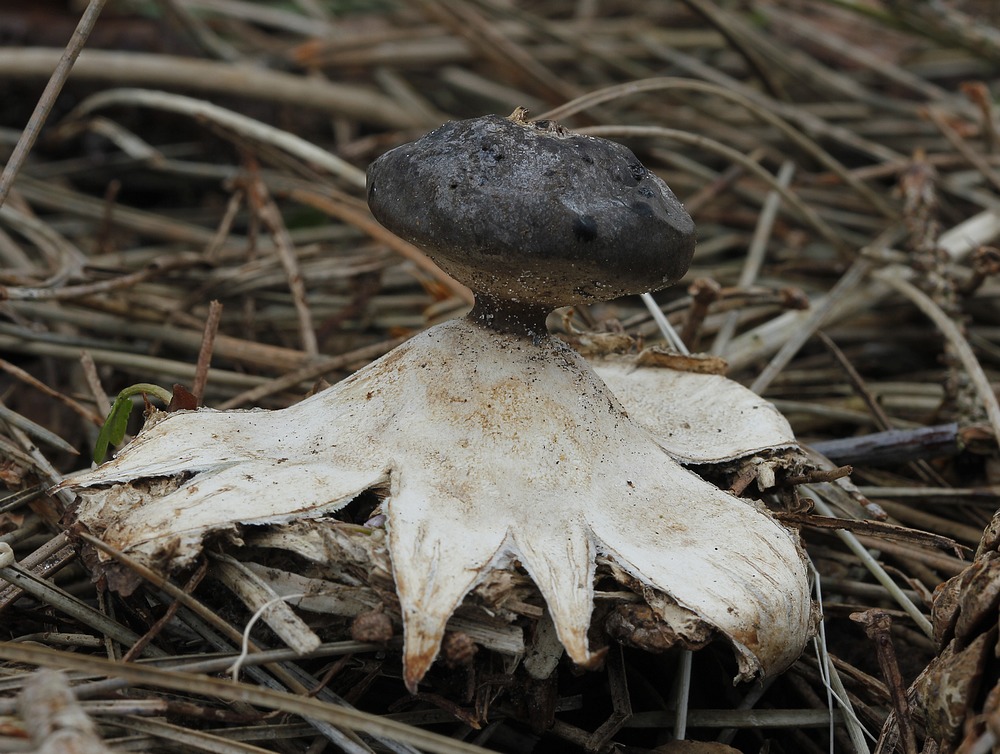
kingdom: Fungi
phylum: Basidiomycota
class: Agaricomycetes
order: Geastrales
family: Geastraceae
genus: Geastrum
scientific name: Geastrum coronatum
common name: mørk stjernebold
